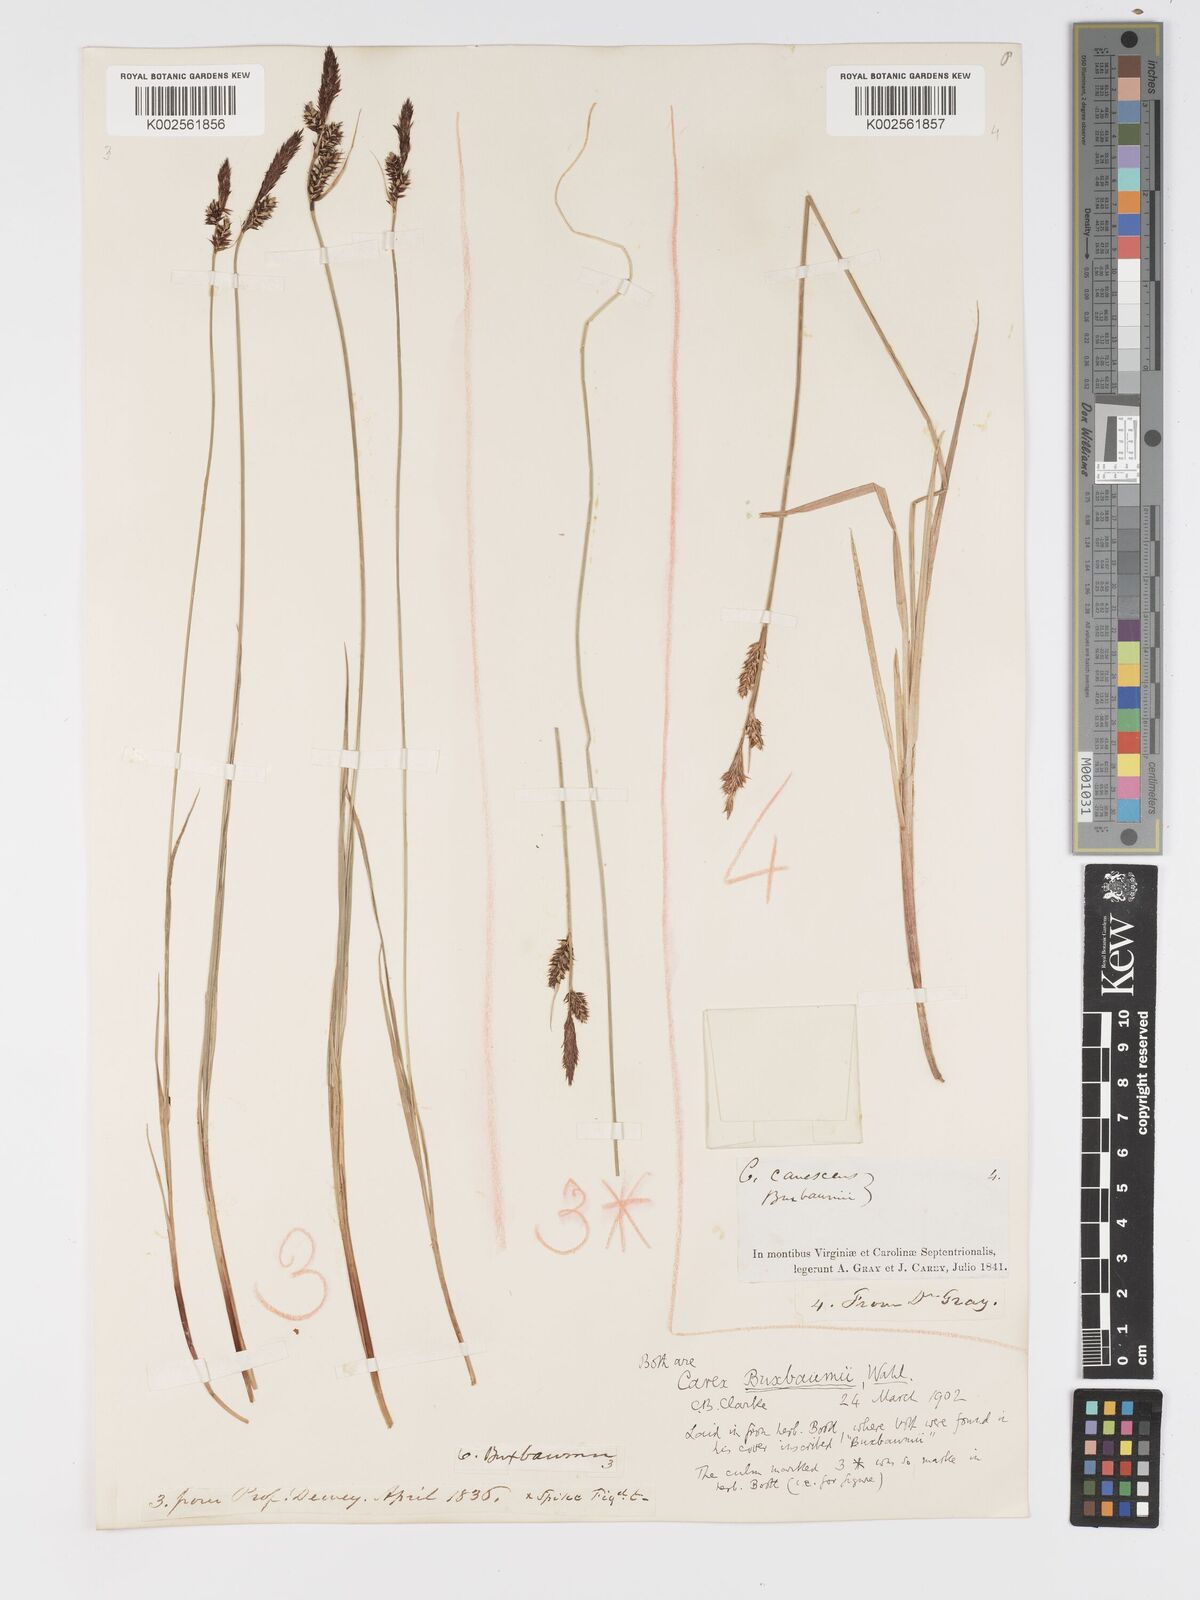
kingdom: Plantae
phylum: Tracheophyta
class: Liliopsida
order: Poales
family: Cyperaceae
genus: Carex
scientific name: Carex buxbaumii
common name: Club sedge
